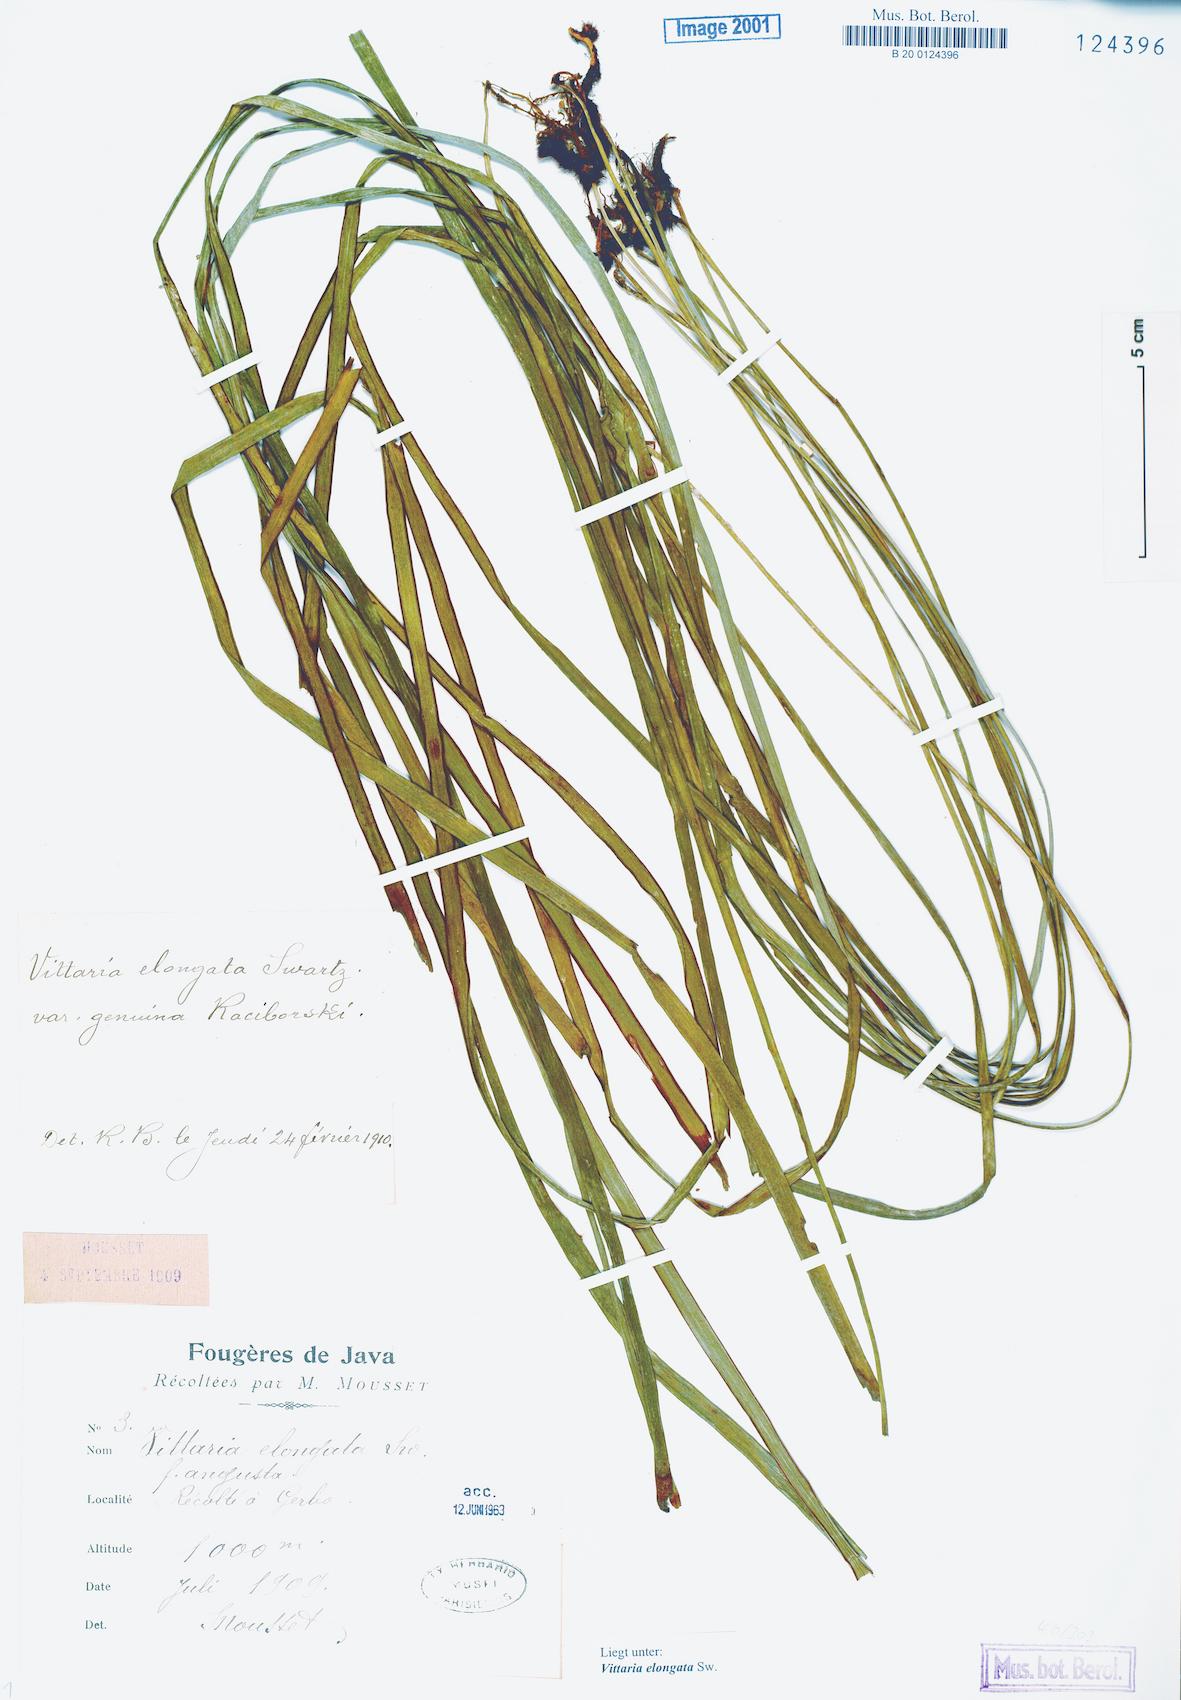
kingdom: Plantae
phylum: Tracheophyta
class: Polypodiopsida
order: Polypodiales
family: Pteridaceae
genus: Haplopteris
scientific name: Haplopteris elongata
